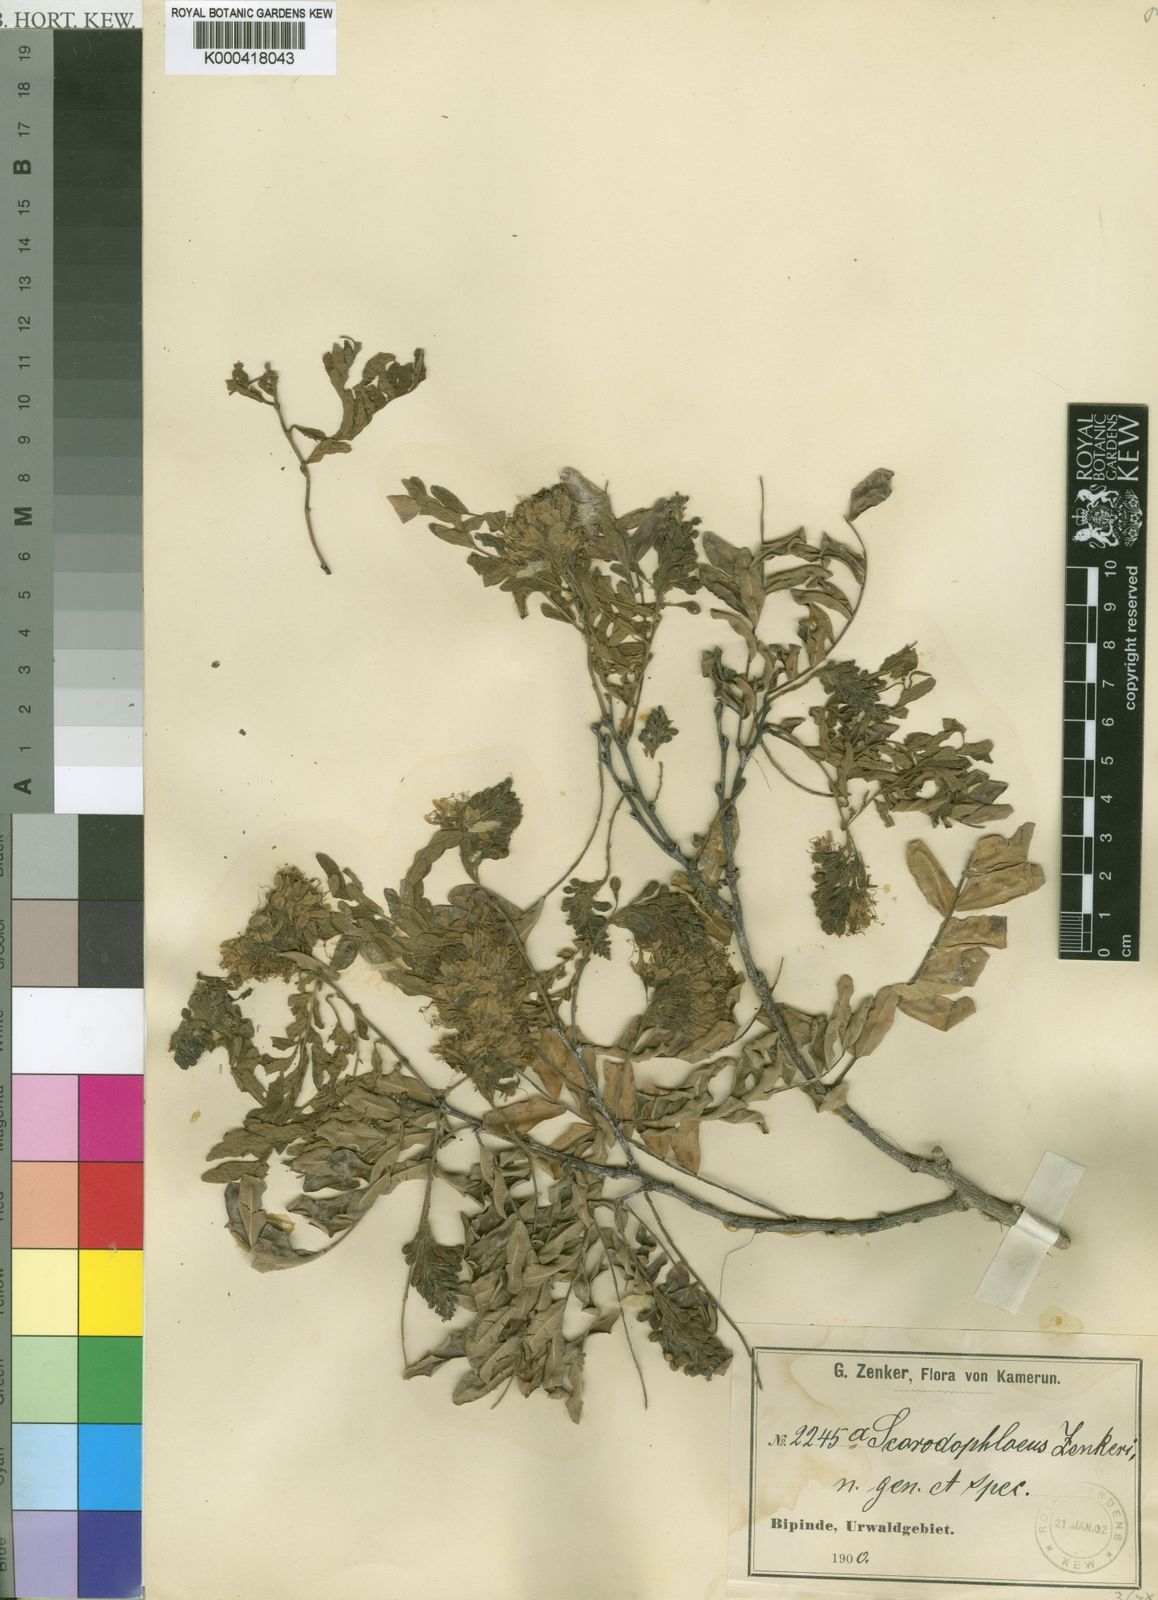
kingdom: Plantae
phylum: Tracheophyta
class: Magnoliopsida
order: Fabales
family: Fabaceae
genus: Scorodophloeus
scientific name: Scorodophloeus zenkeri
